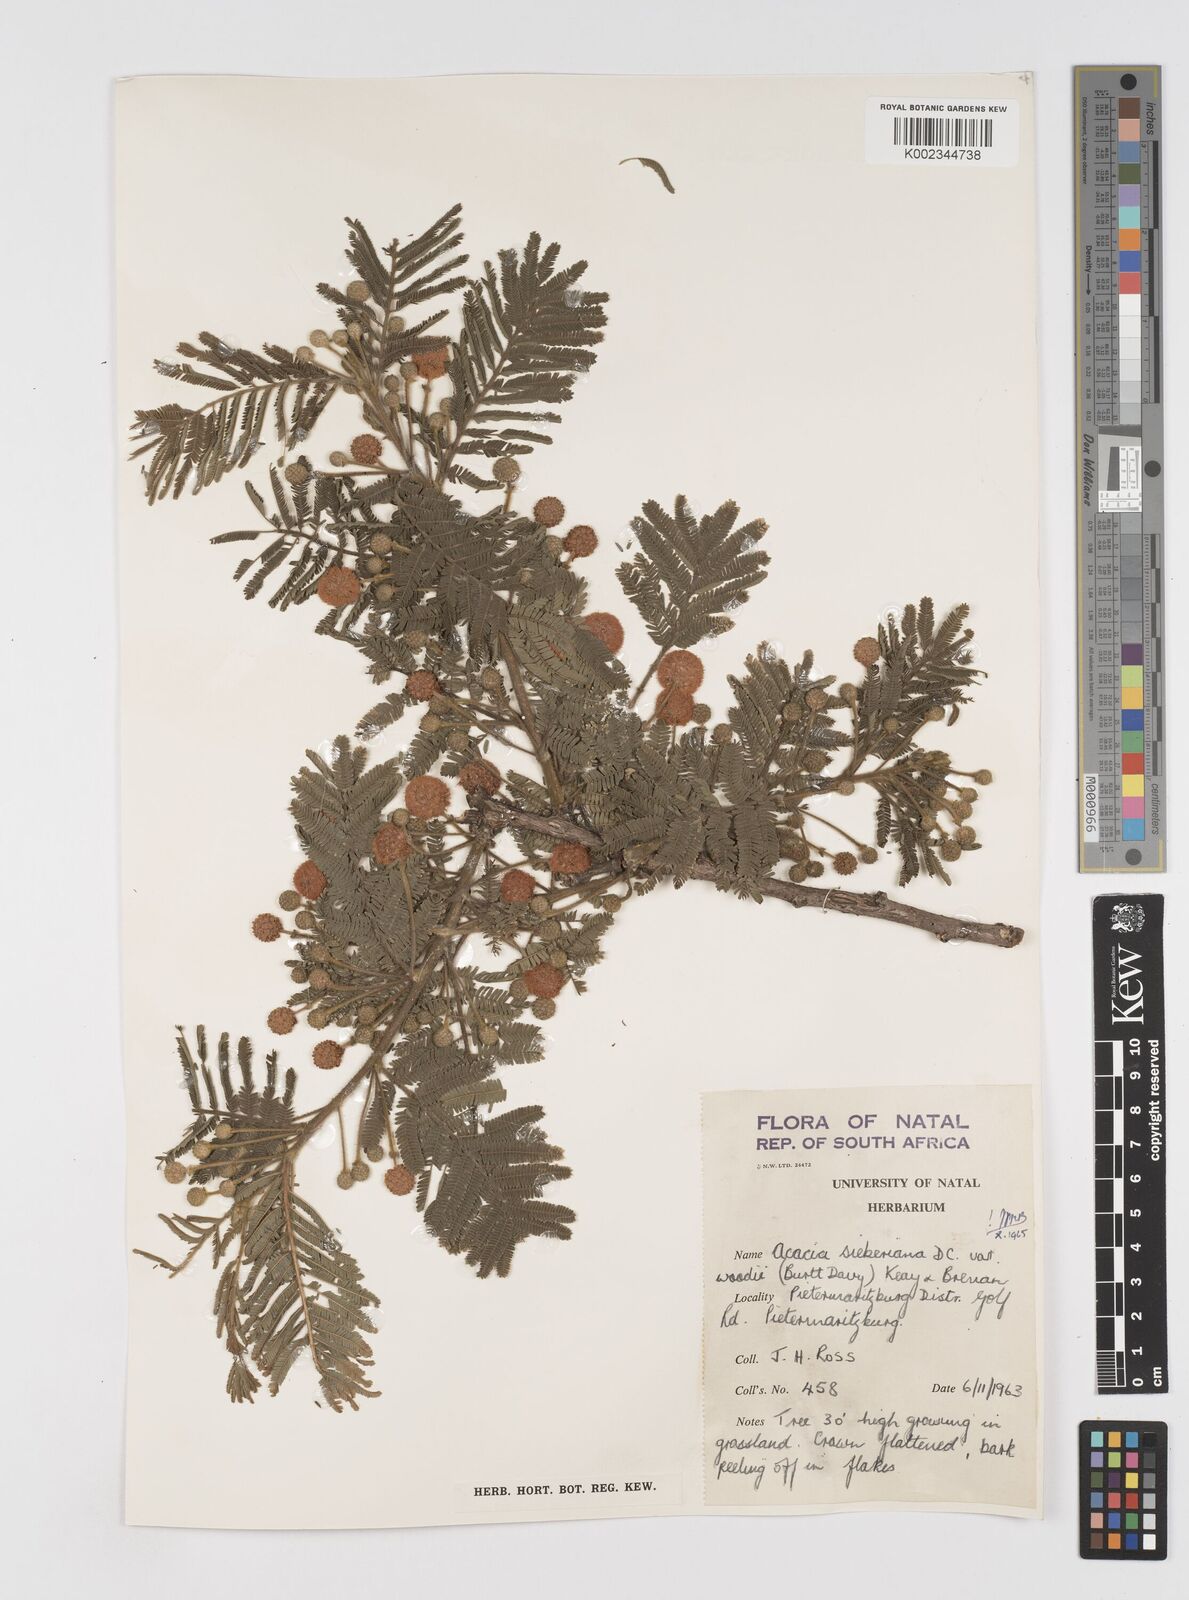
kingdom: Plantae
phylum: Tracheophyta
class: Magnoliopsida
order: Fabales
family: Fabaceae
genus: Acacia
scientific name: Acacia hamiltoniana
